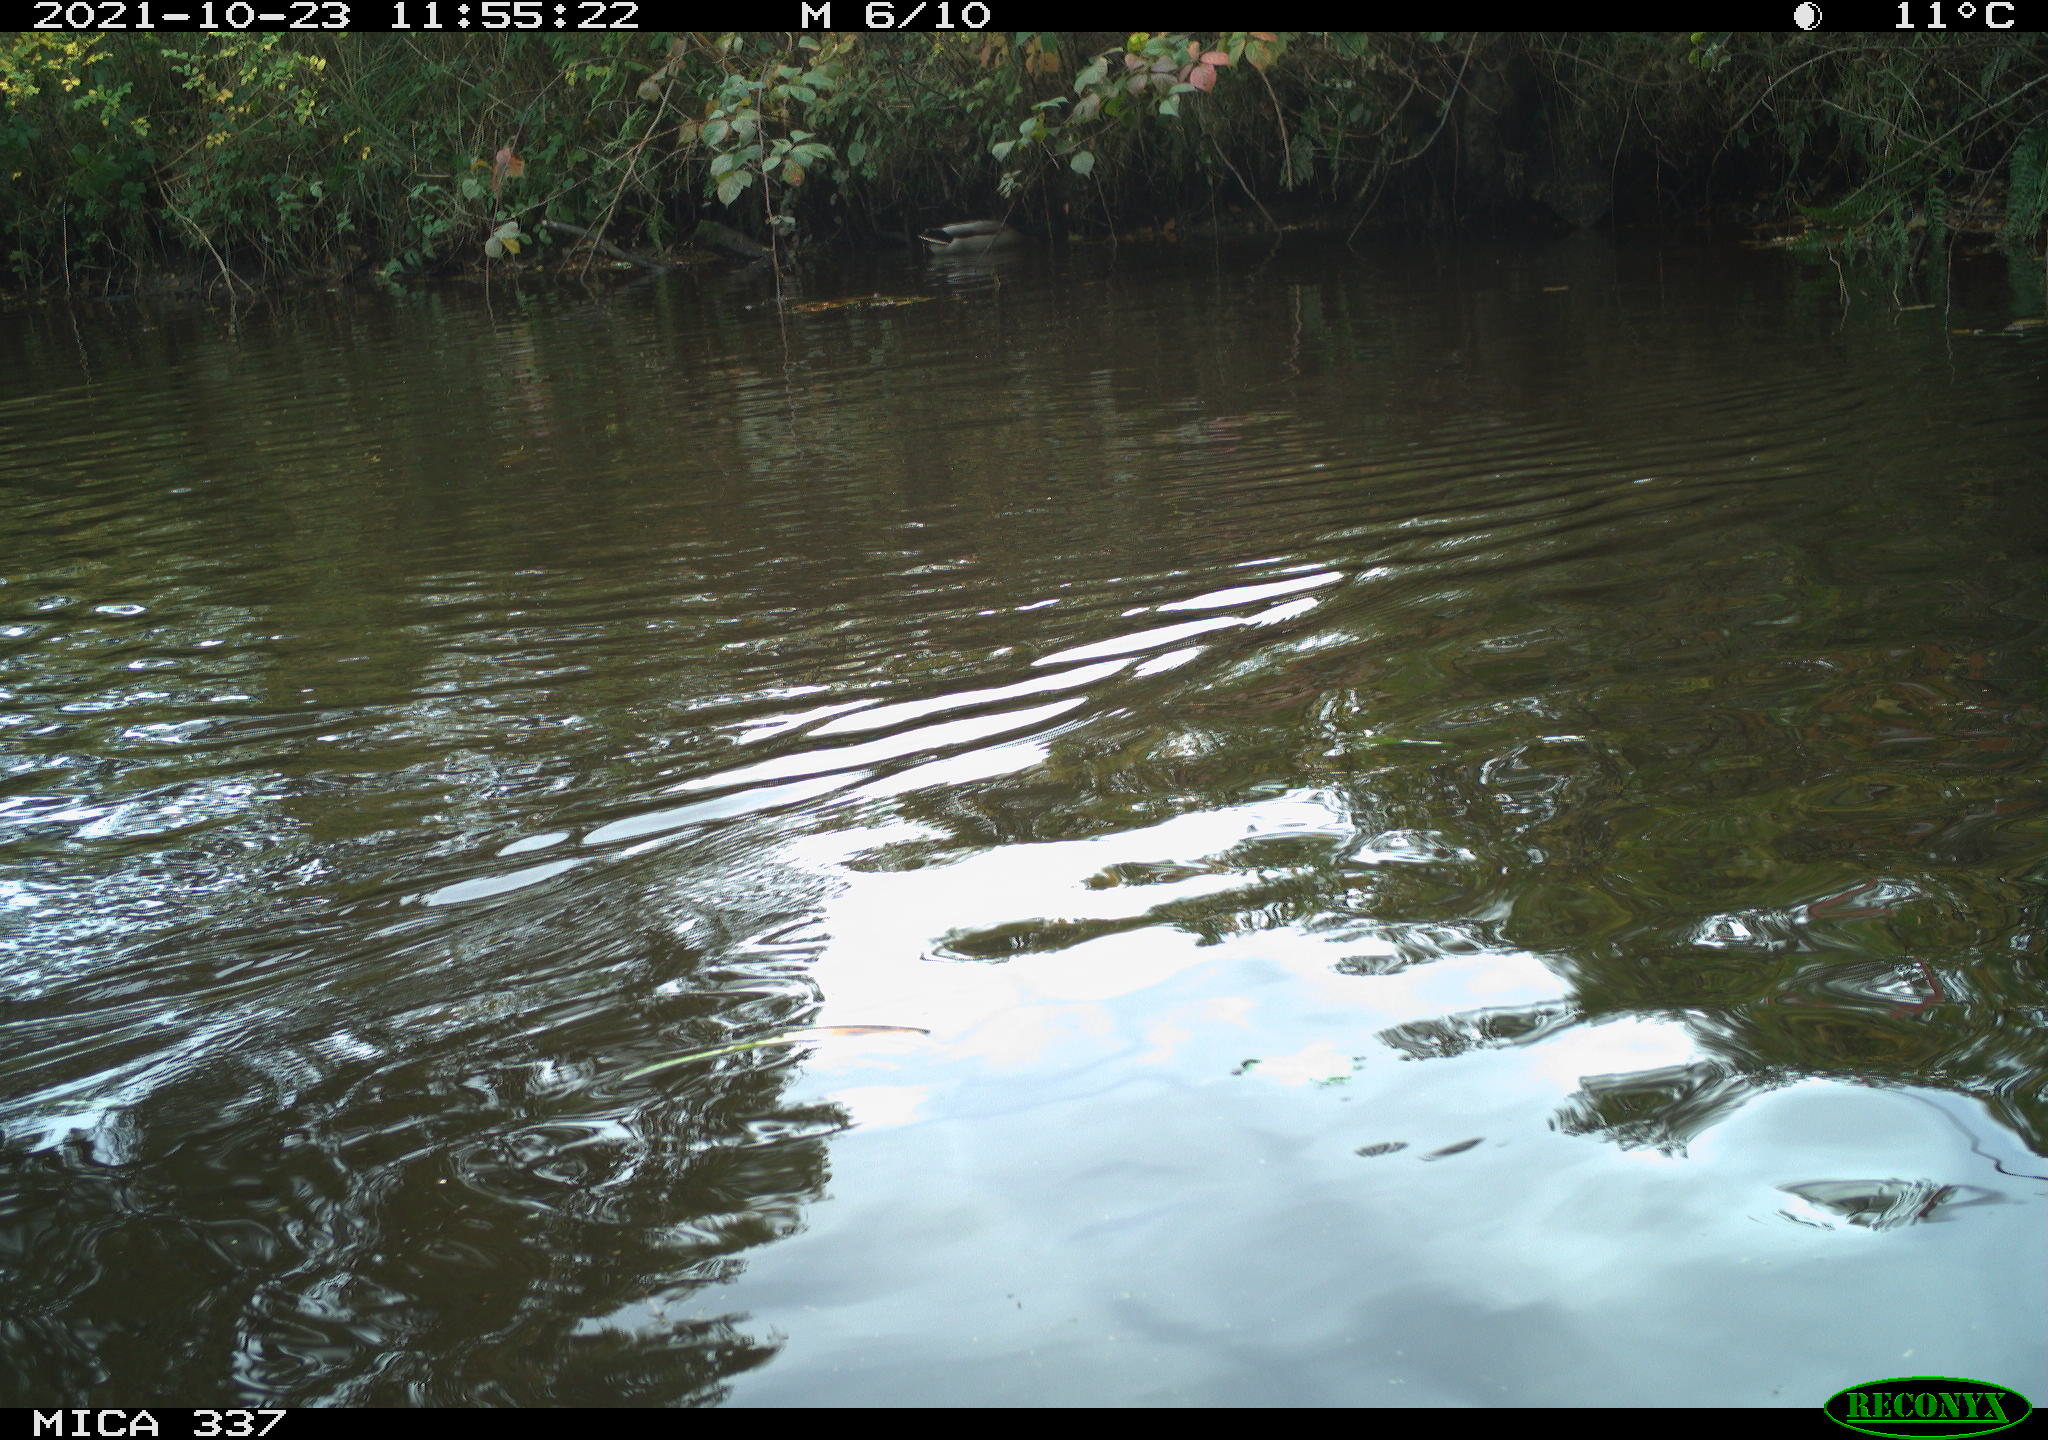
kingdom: Animalia
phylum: Chordata
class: Aves
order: Anseriformes
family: Anatidae
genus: Anas
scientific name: Anas platyrhynchos
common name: Mallard
